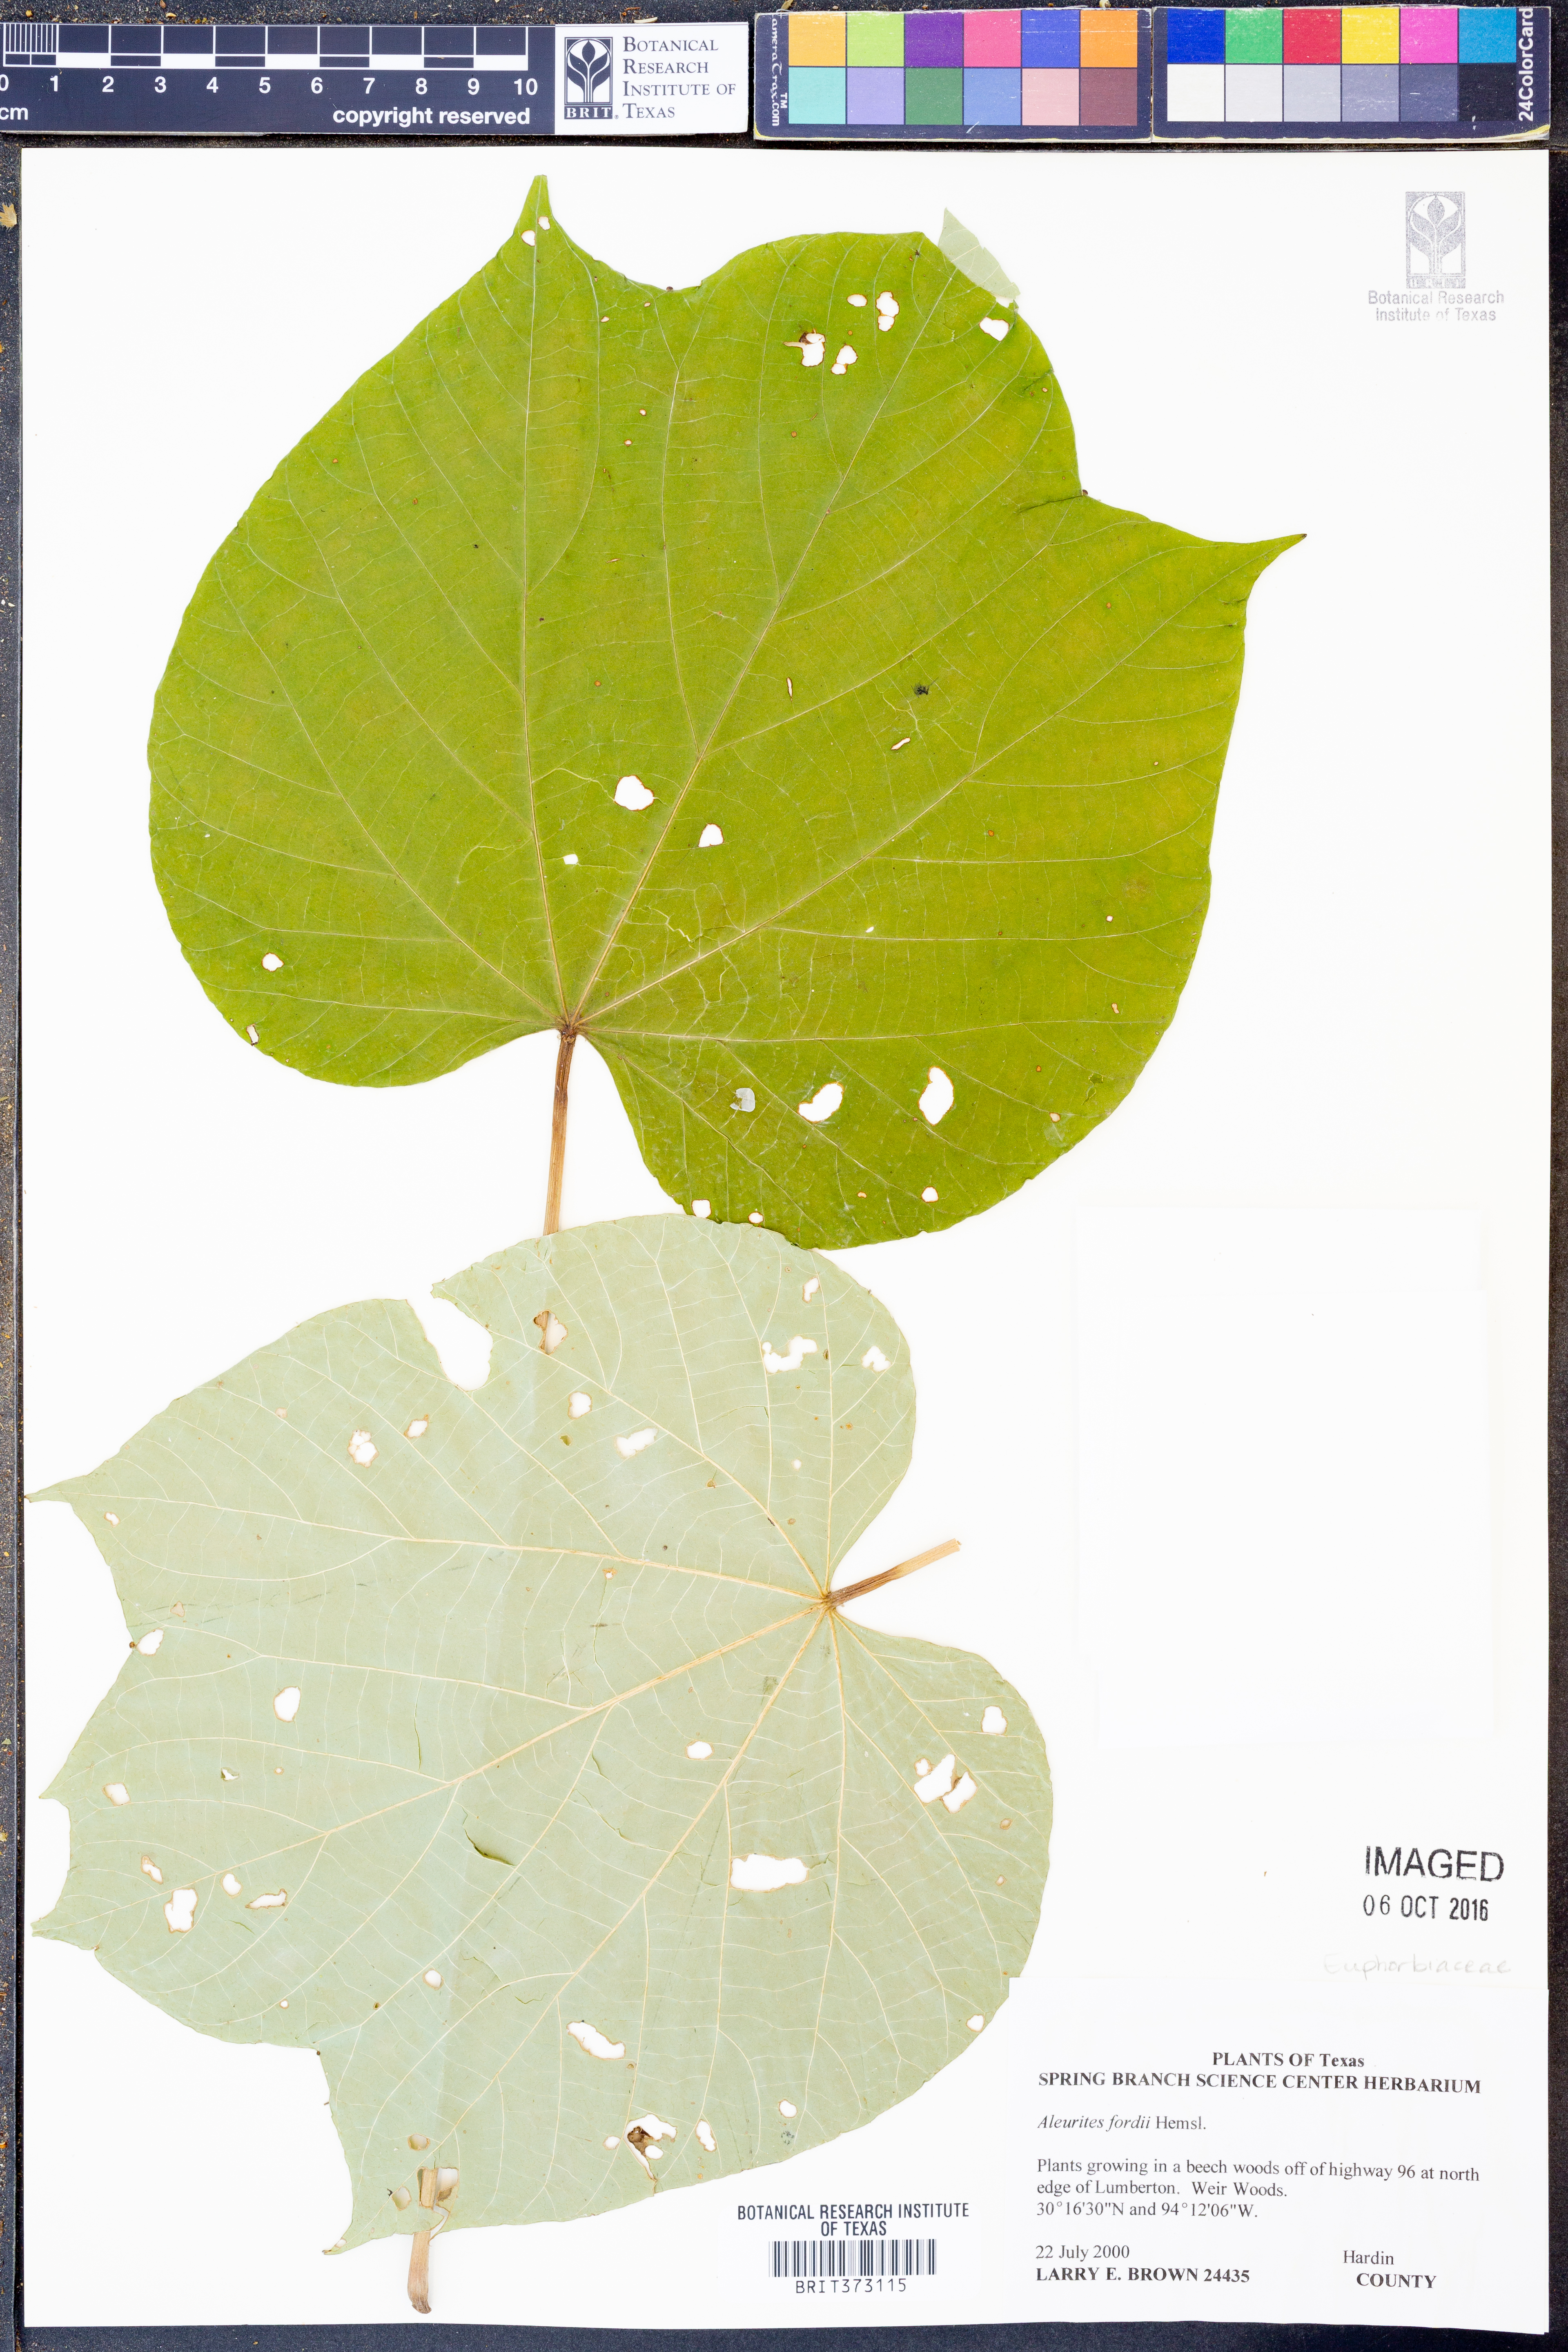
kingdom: Plantae
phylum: Tracheophyta
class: Magnoliopsida
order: Malpighiales
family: Euphorbiaceae
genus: Vernicia
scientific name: Vernicia fordii
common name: Tungoil tree
